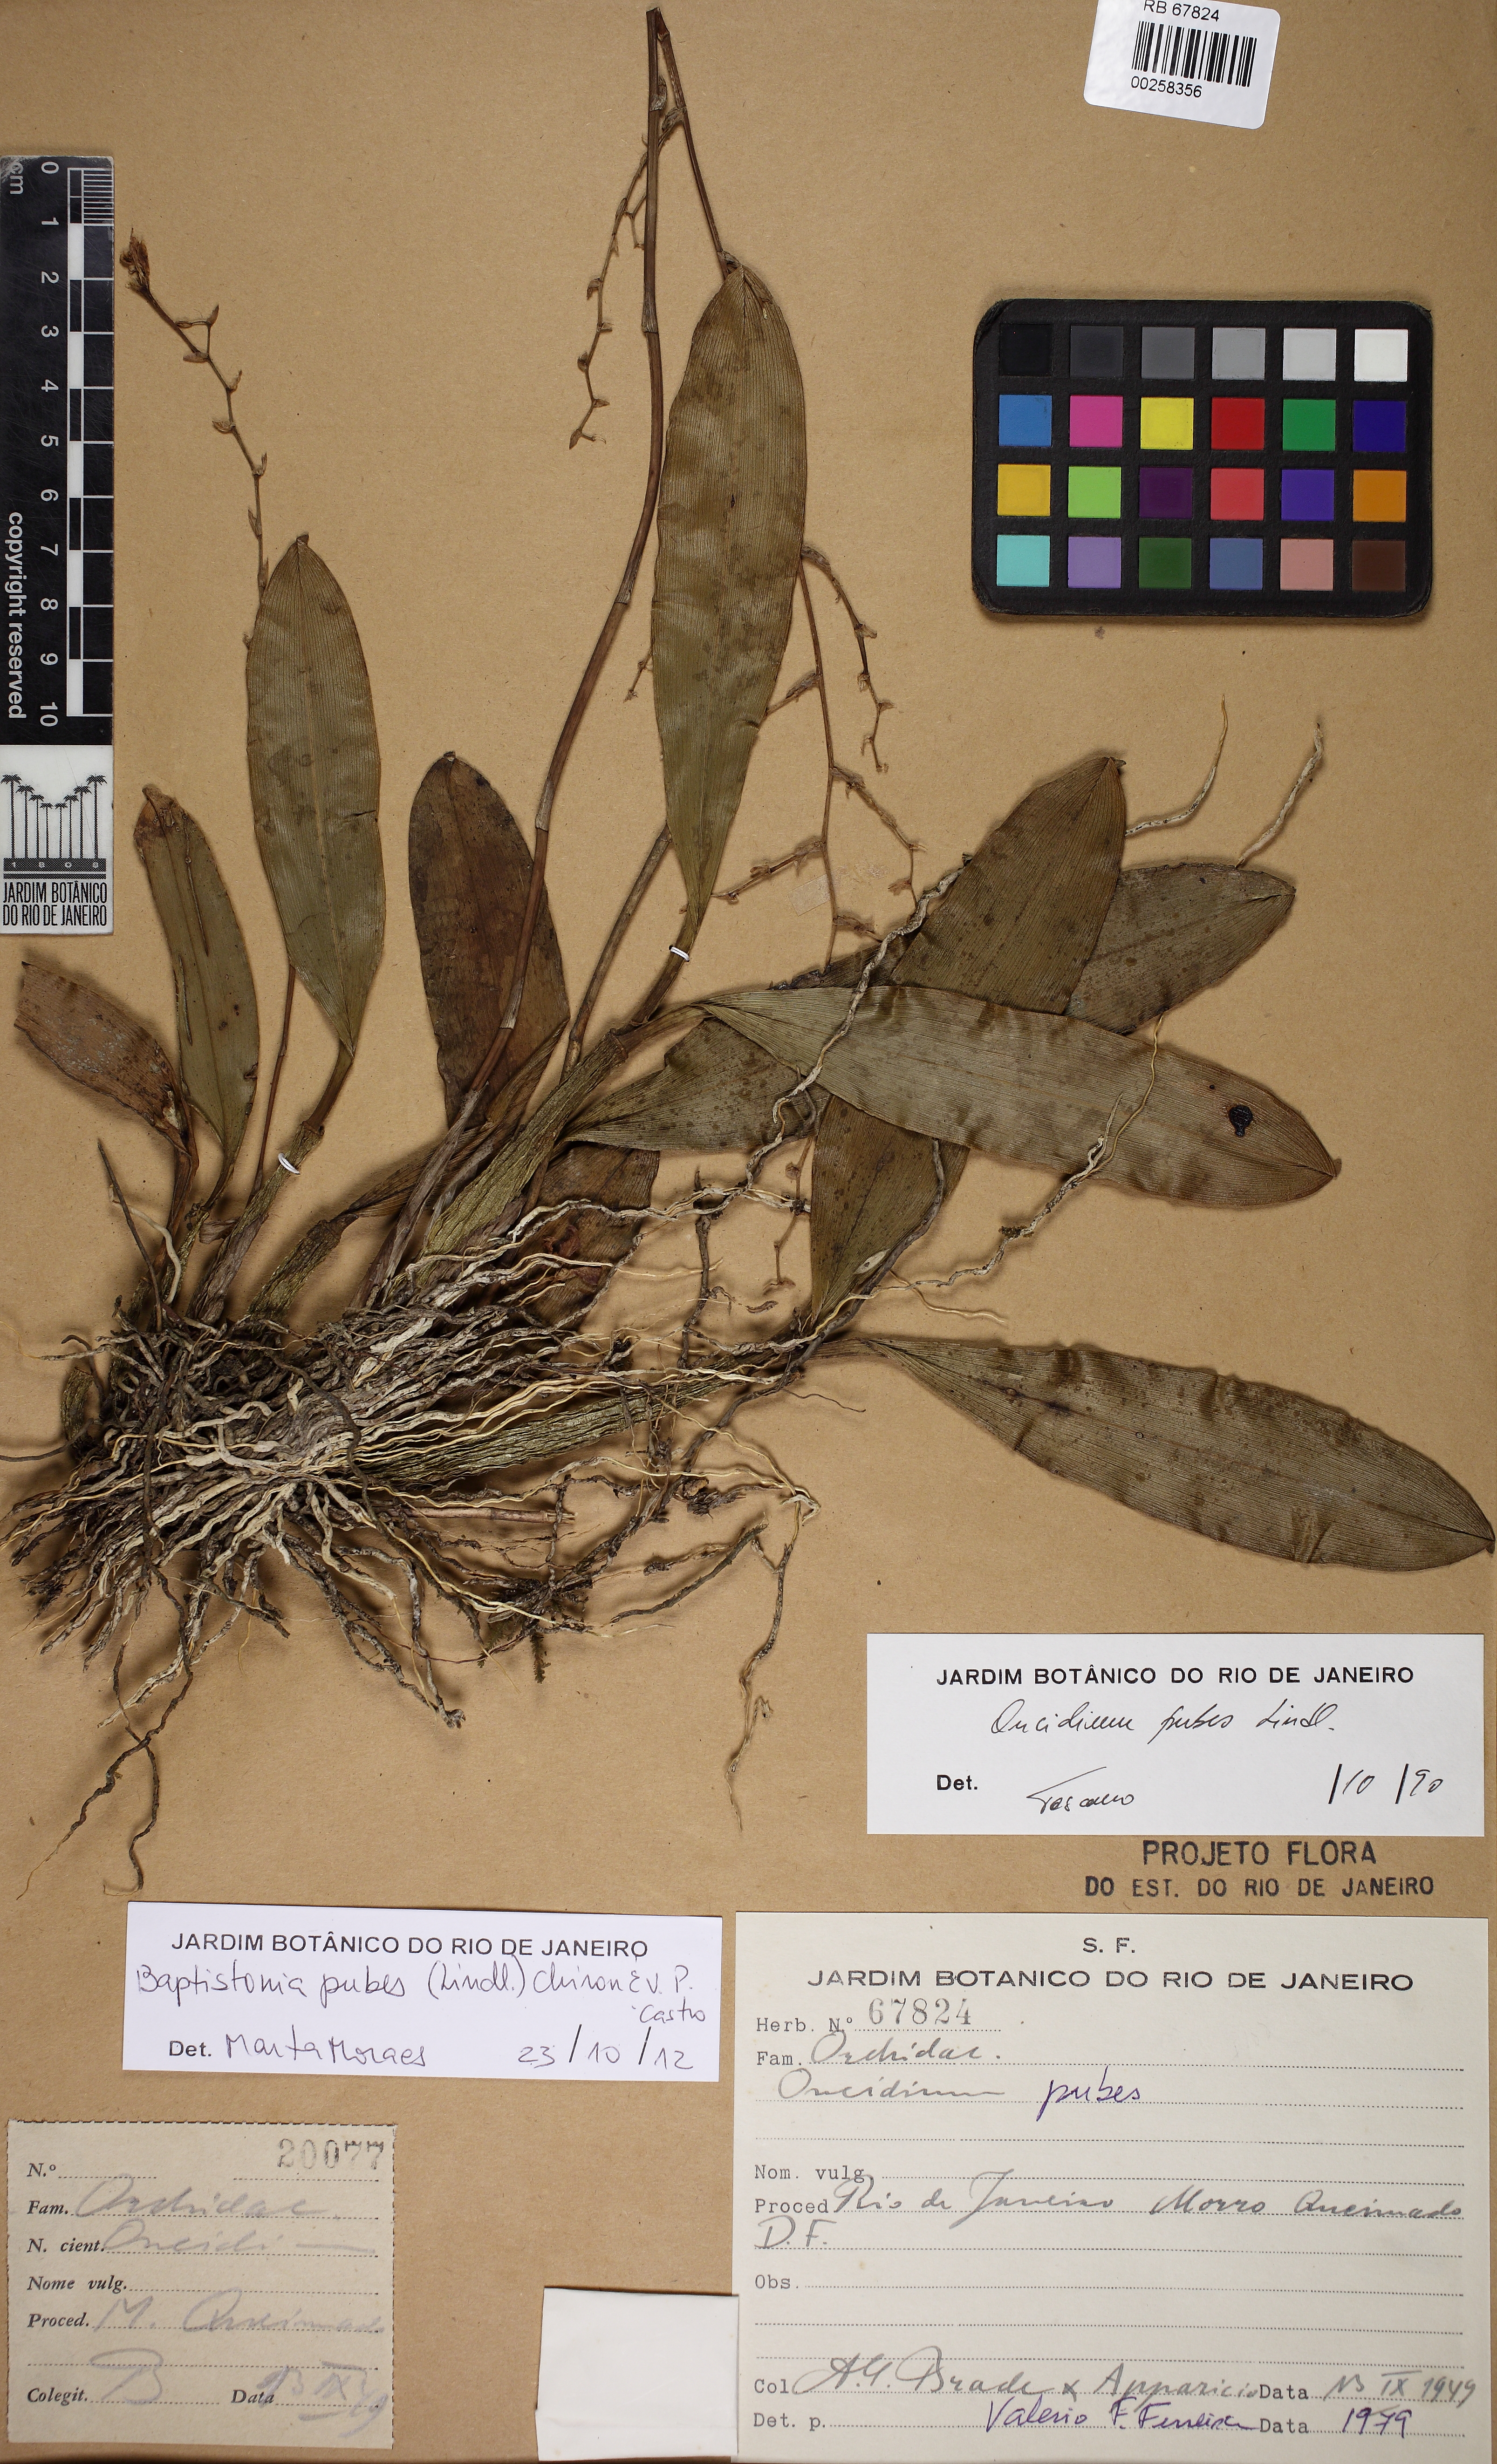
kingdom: Plantae
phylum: Tracheophyta
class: Liliopsida
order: Asparagales
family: Orchidaceae
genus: Gomesa
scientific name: Gomesa pubes
